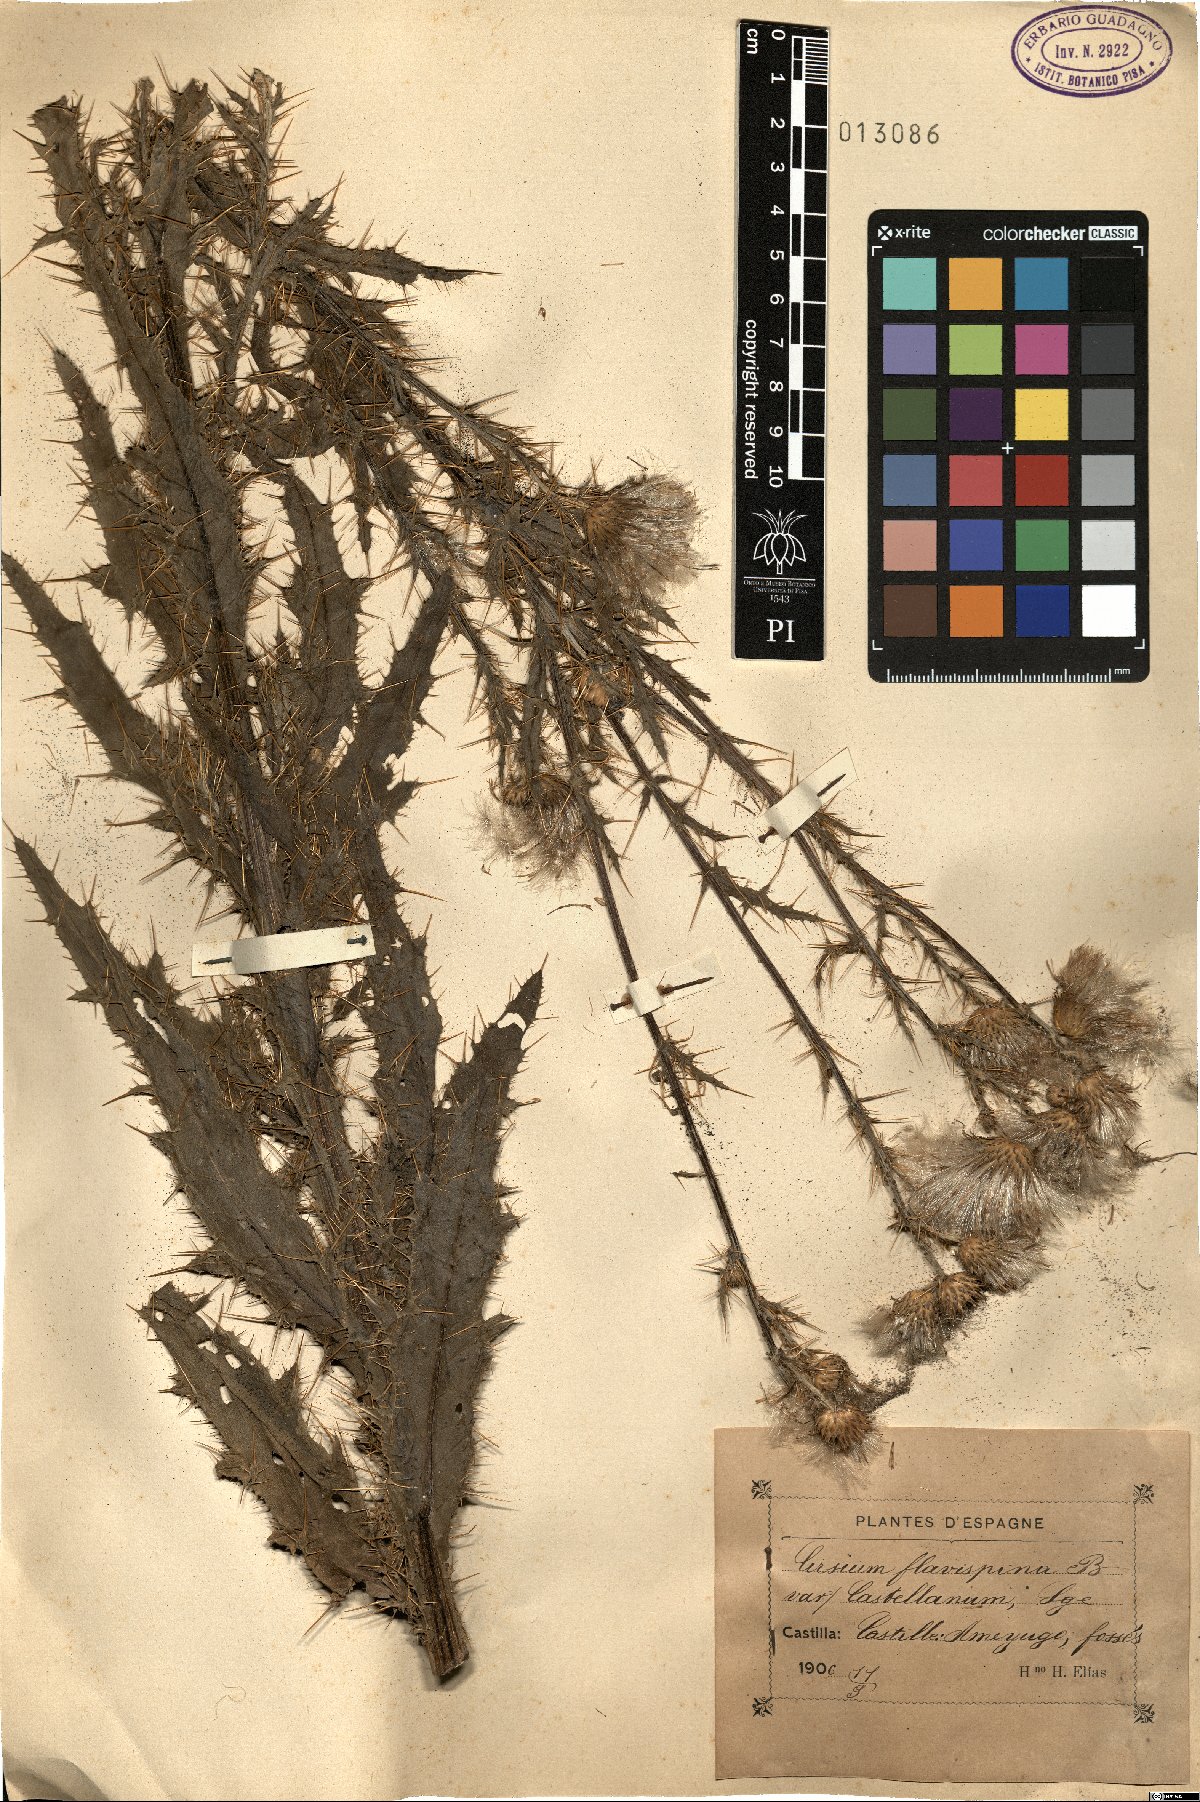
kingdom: Plantae
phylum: Tracheophyta
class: Magnoliopsida
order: Asterales
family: Asteraceae
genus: Cirsium
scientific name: Cirsium pyrenaicum
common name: Pyrenean thistle
